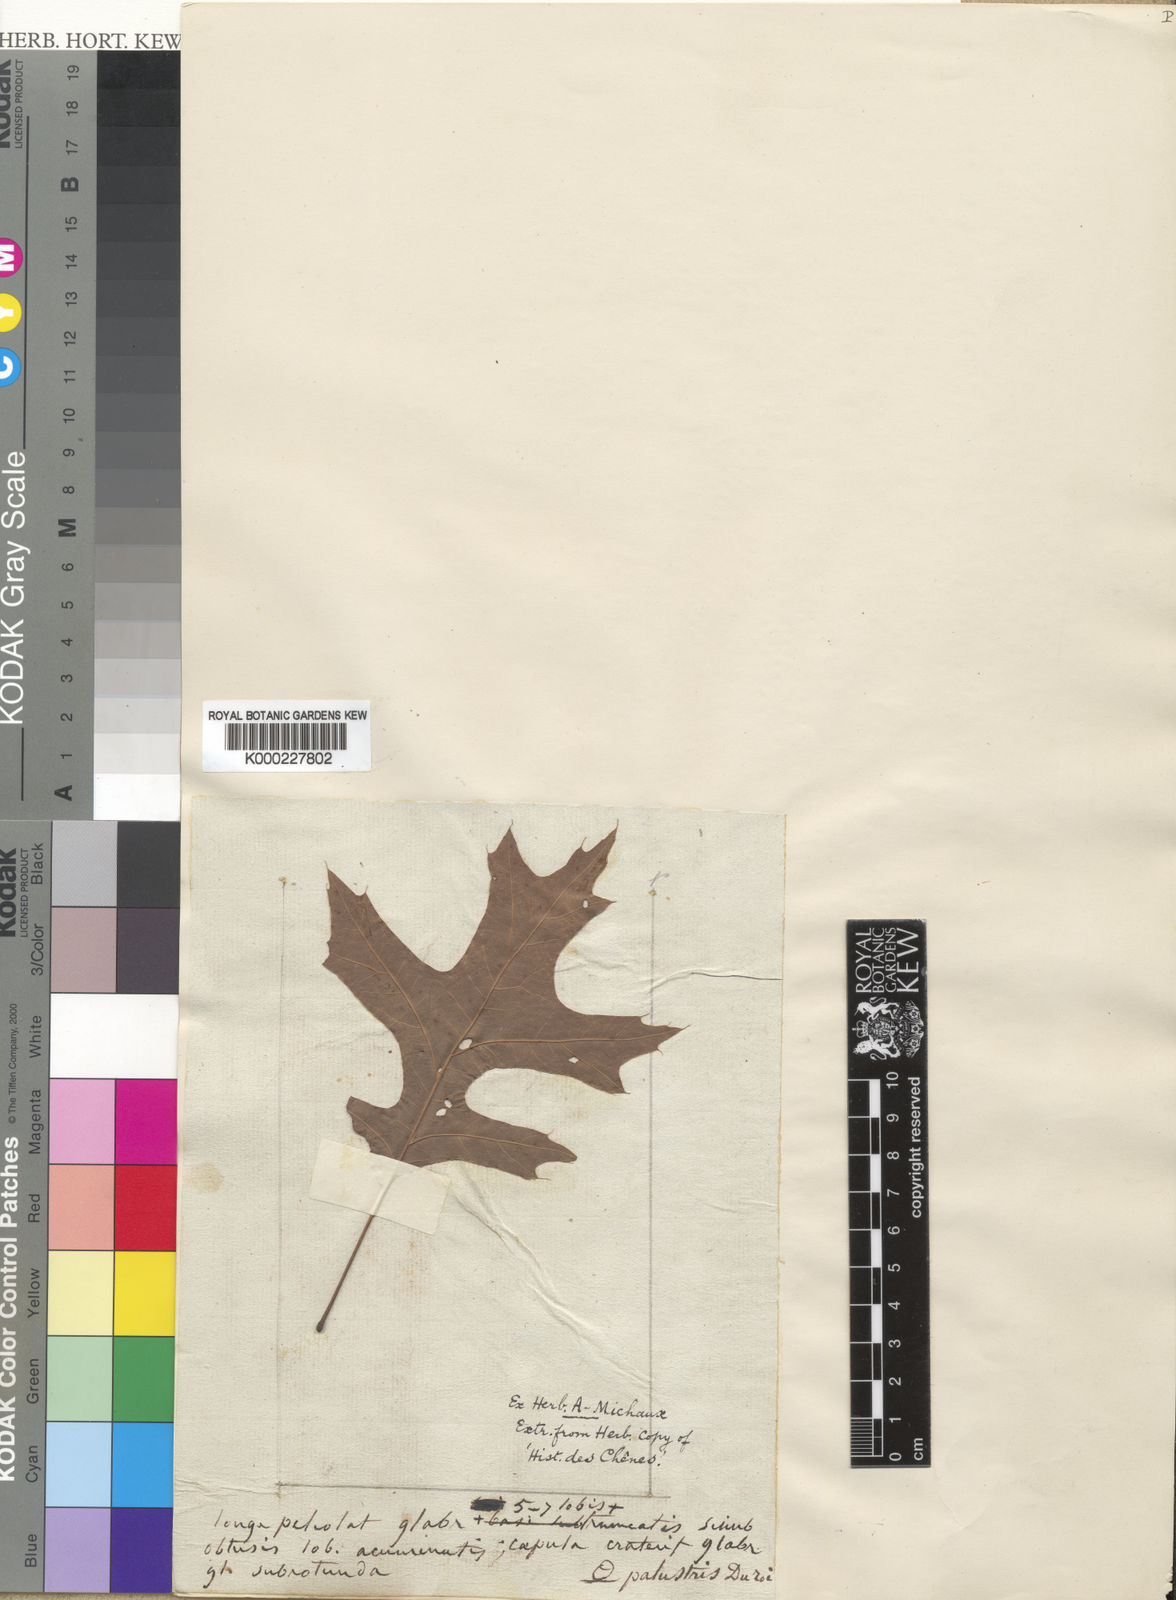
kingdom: Plantae
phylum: Tracheophyta
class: Magnoliopsida
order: Fagales
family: Fagaceae
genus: Quercus
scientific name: Quercus
